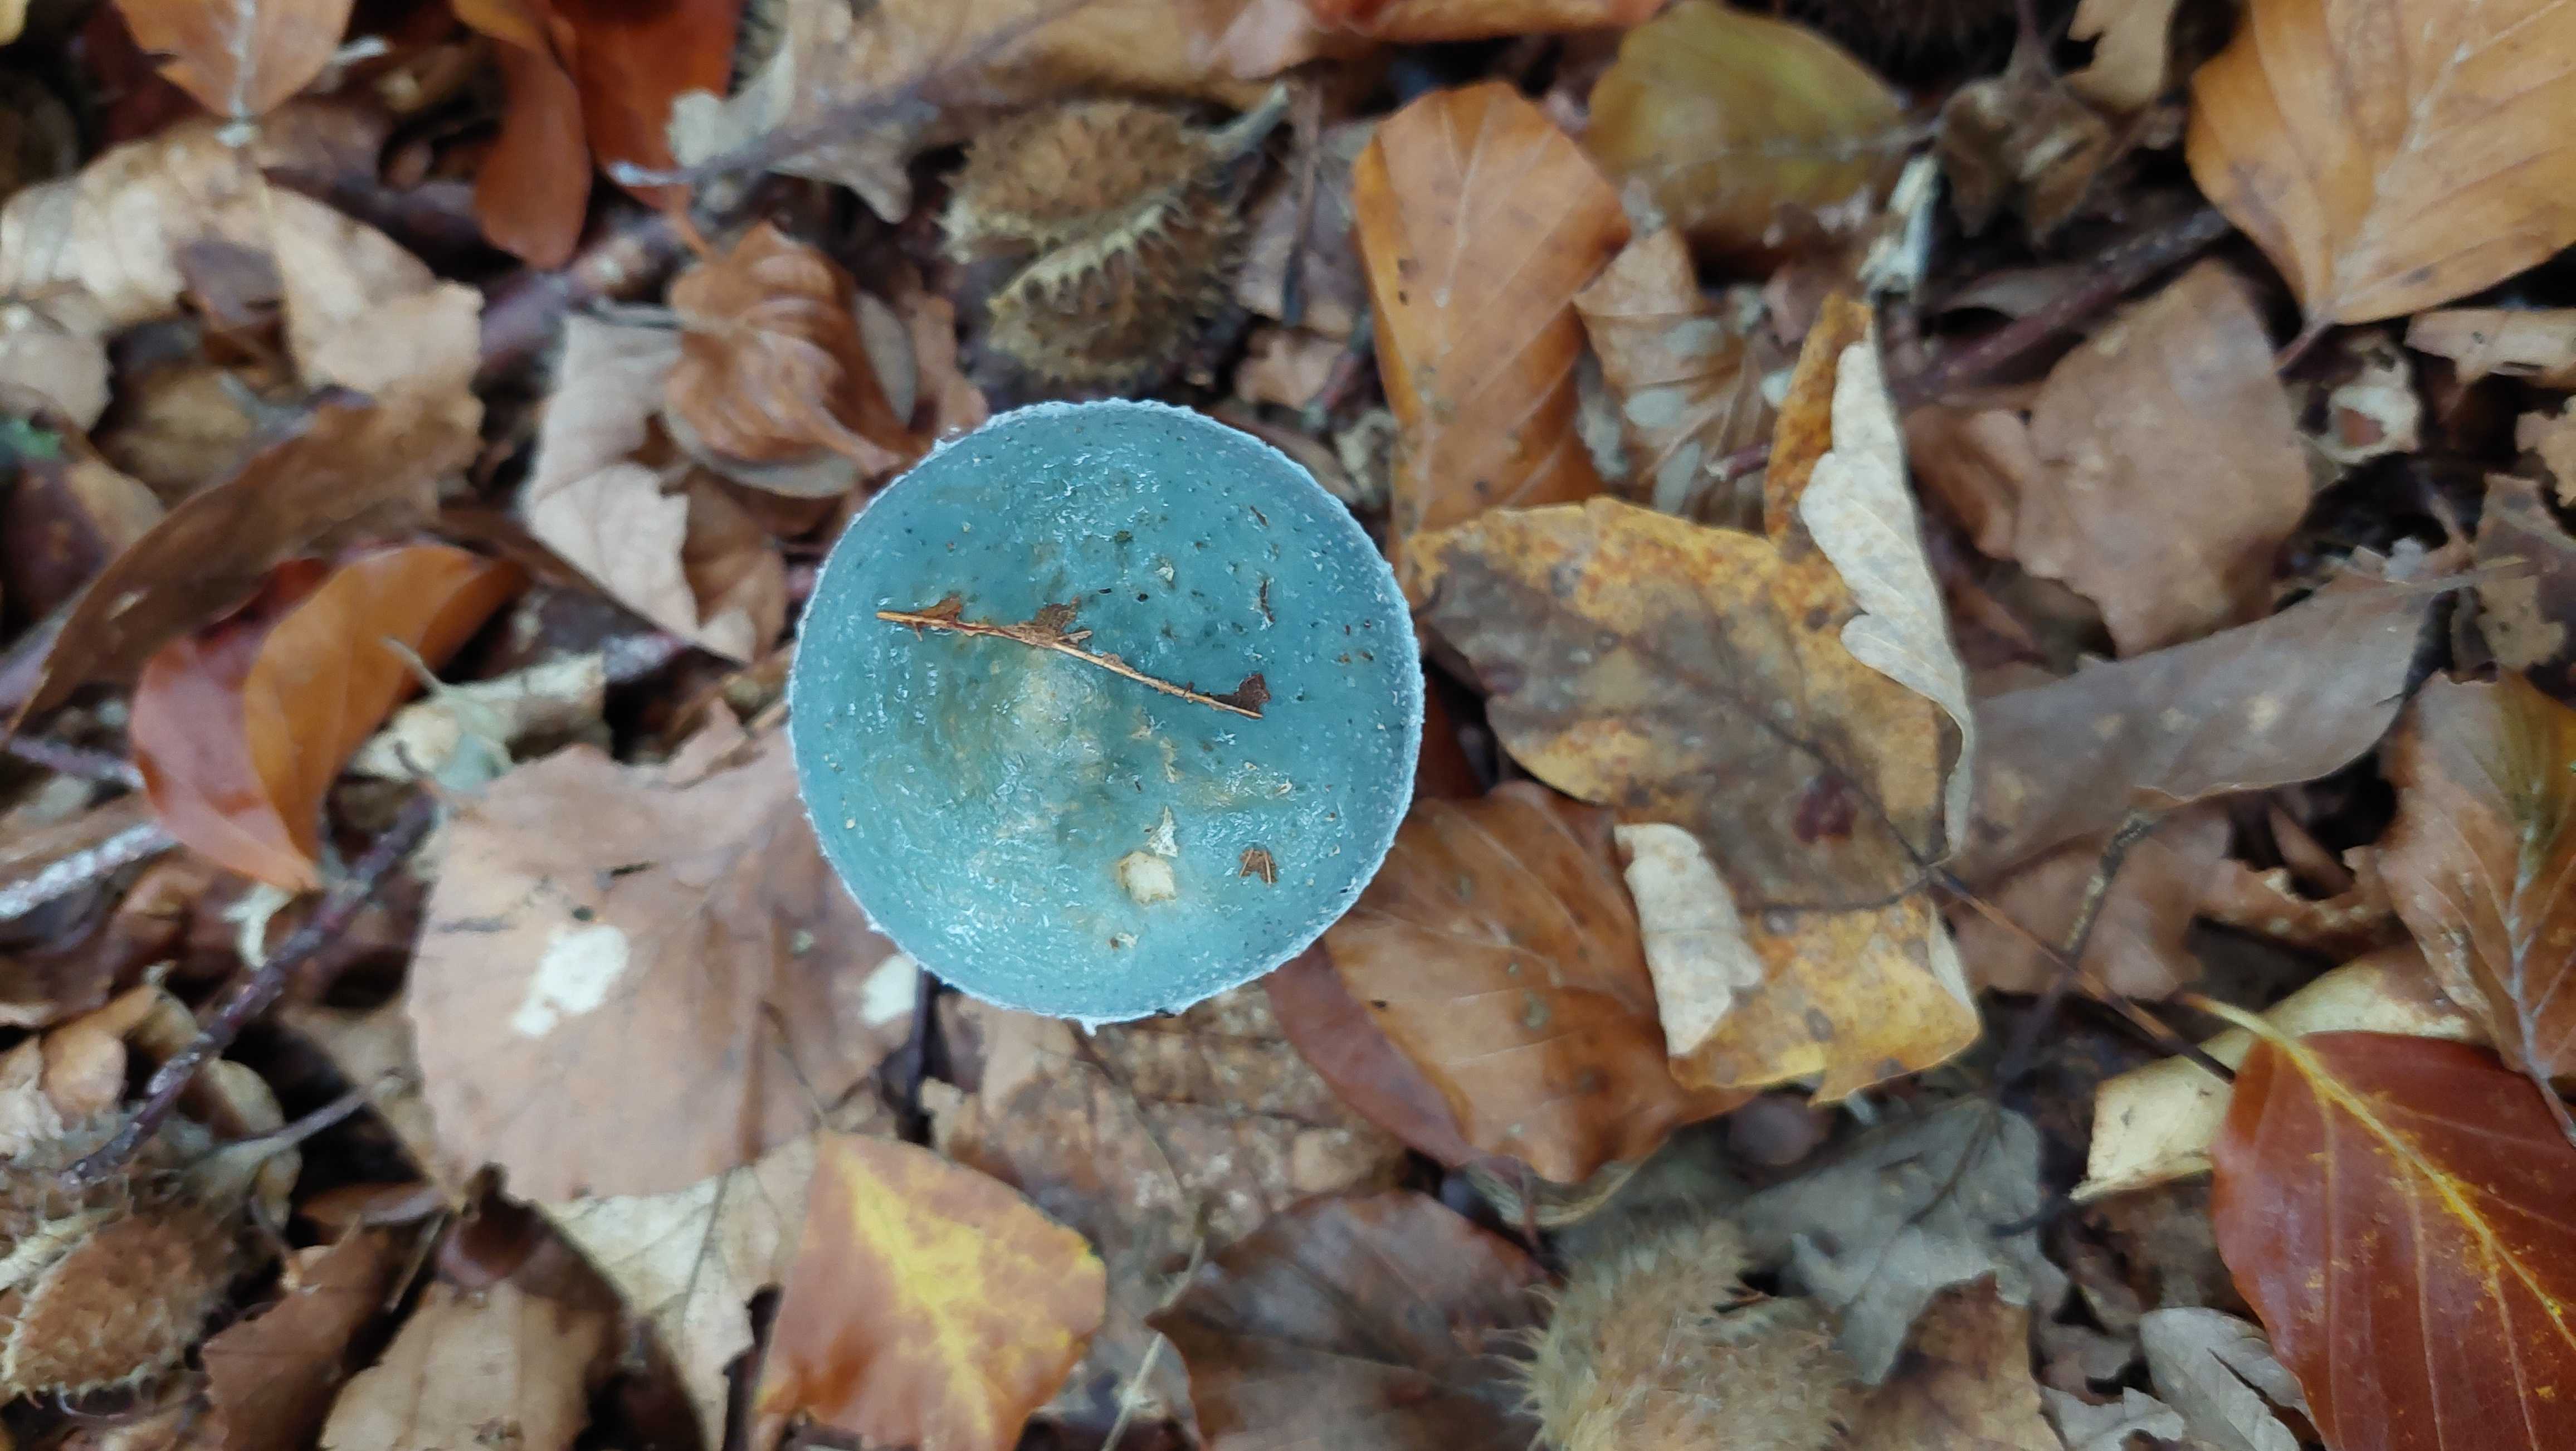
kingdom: Fungi
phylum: Basidiomycota
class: Agaricomycetes
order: Agaricales
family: Strophariaceae
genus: Stropharia
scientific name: Stropharia cyanea
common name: blågrøn bredblad
